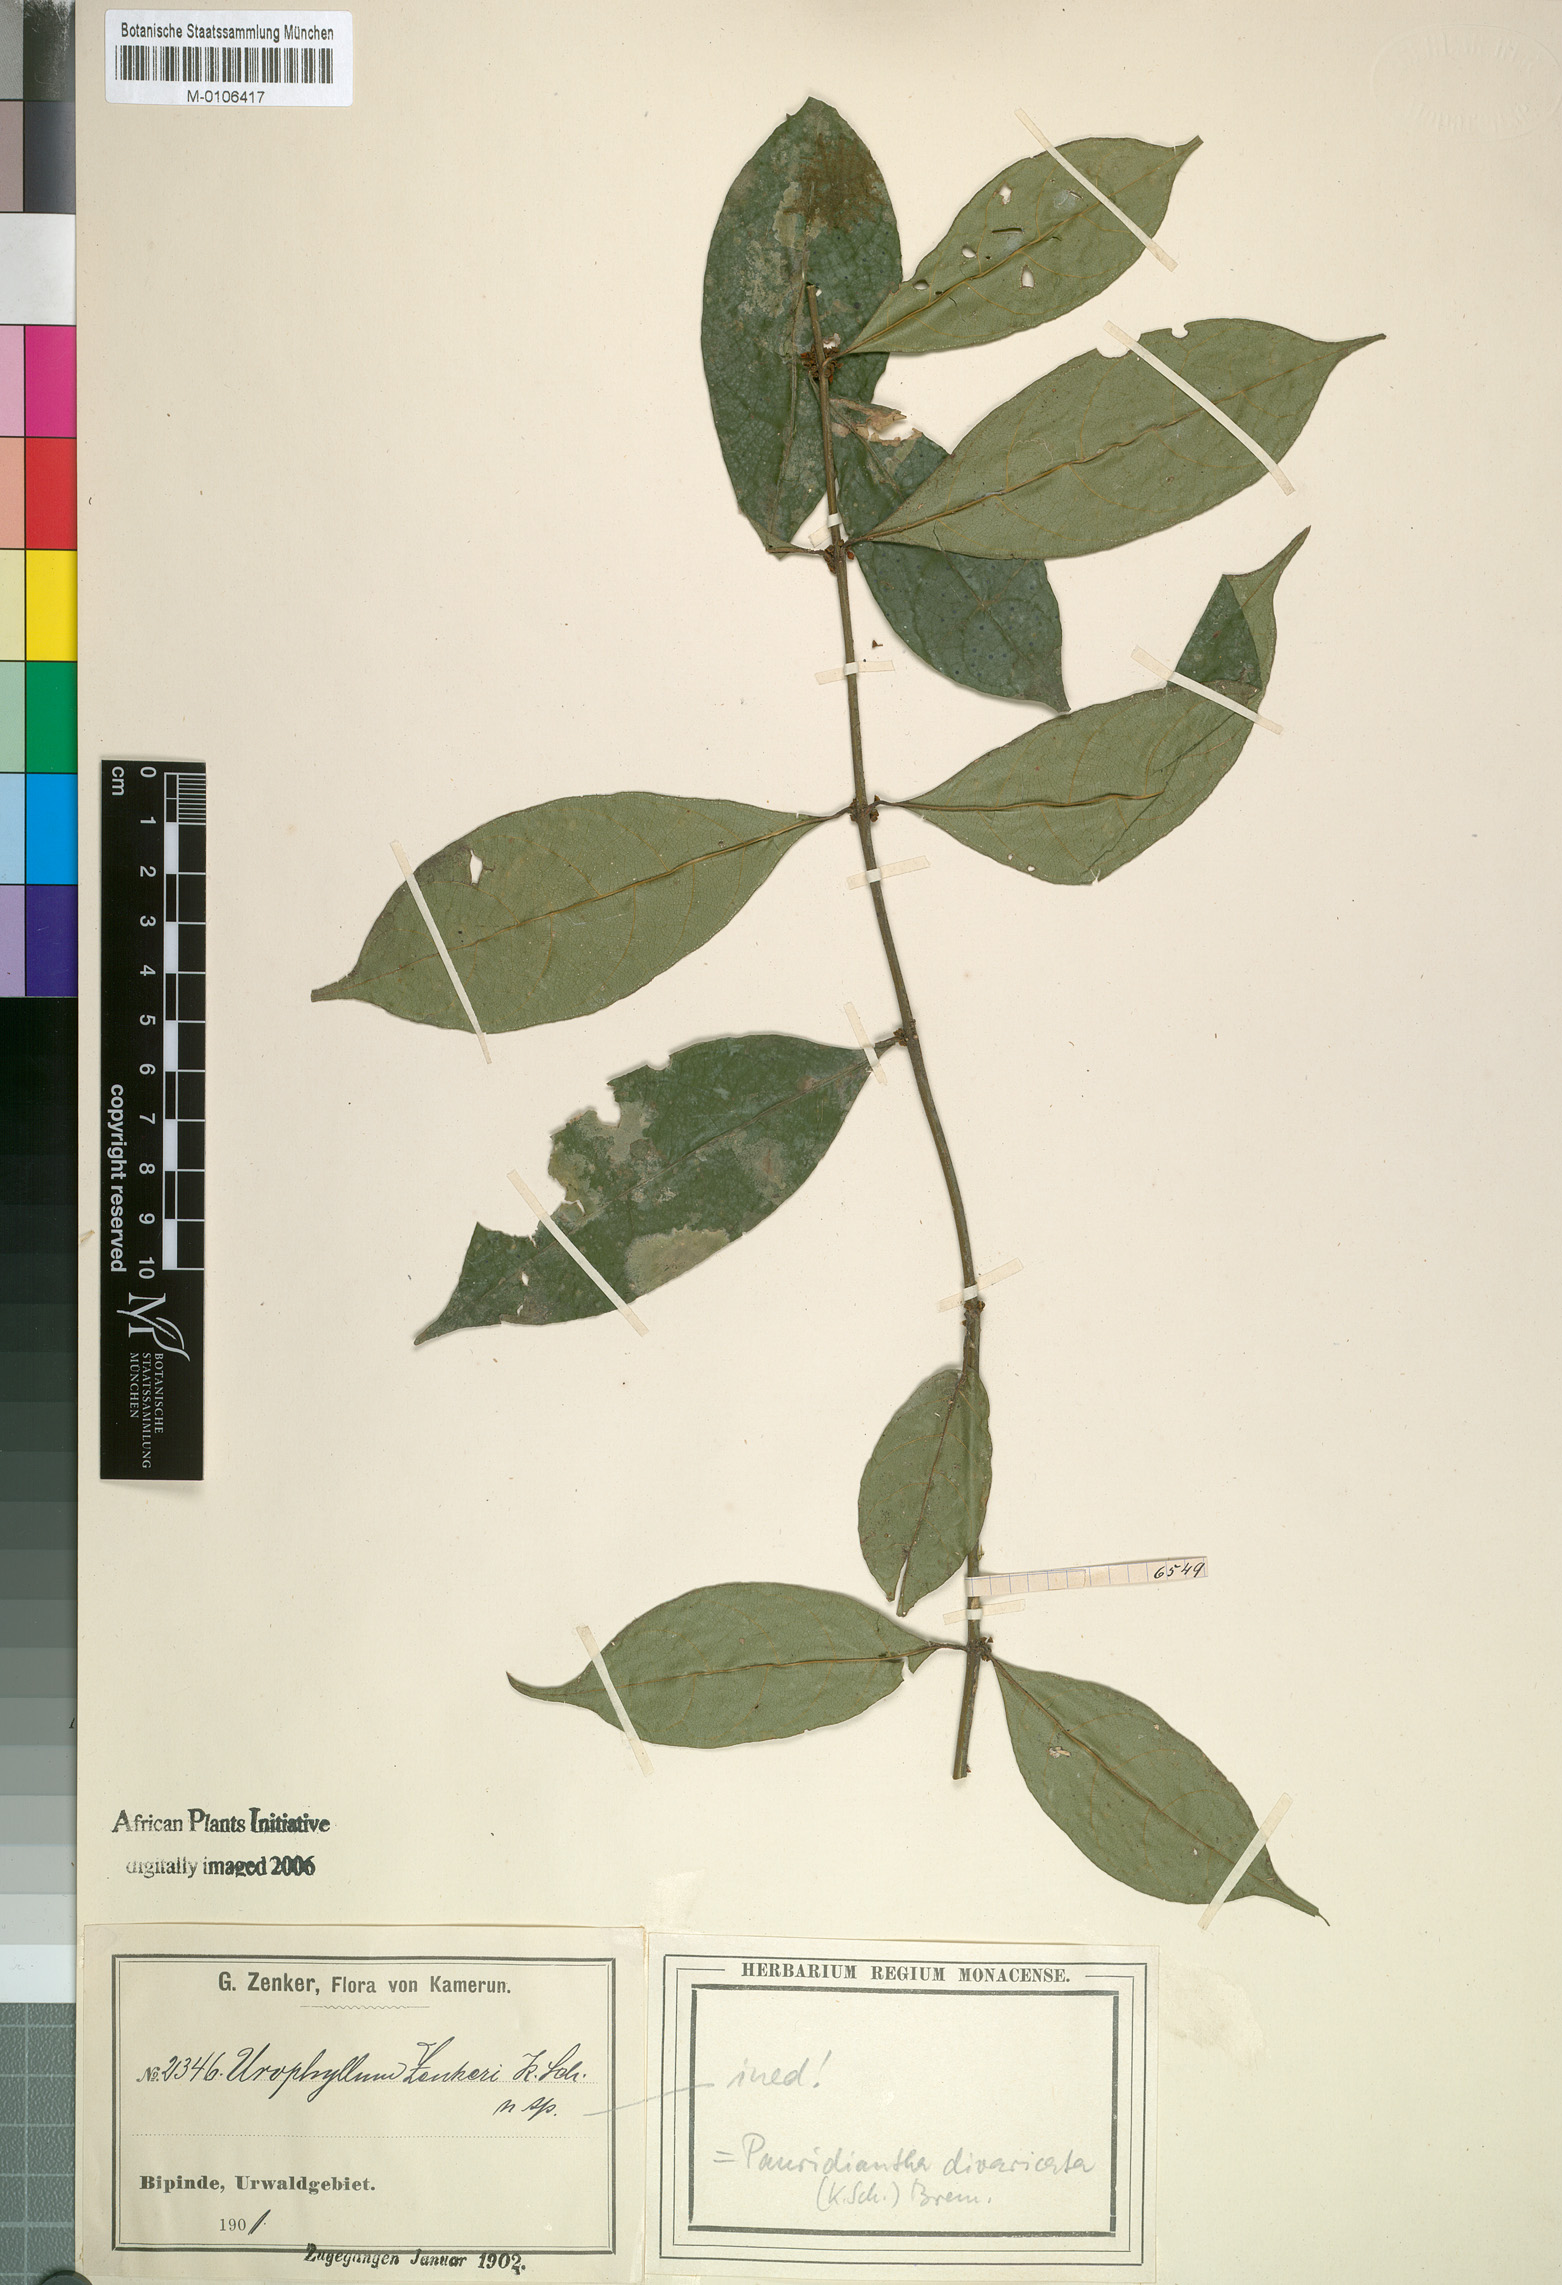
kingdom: Plantae
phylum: Tracheophyta
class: Magnoliopsida
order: Gentianales
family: Rubiaceae
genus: Pauridiantha
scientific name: Pauridiantha divaricata
